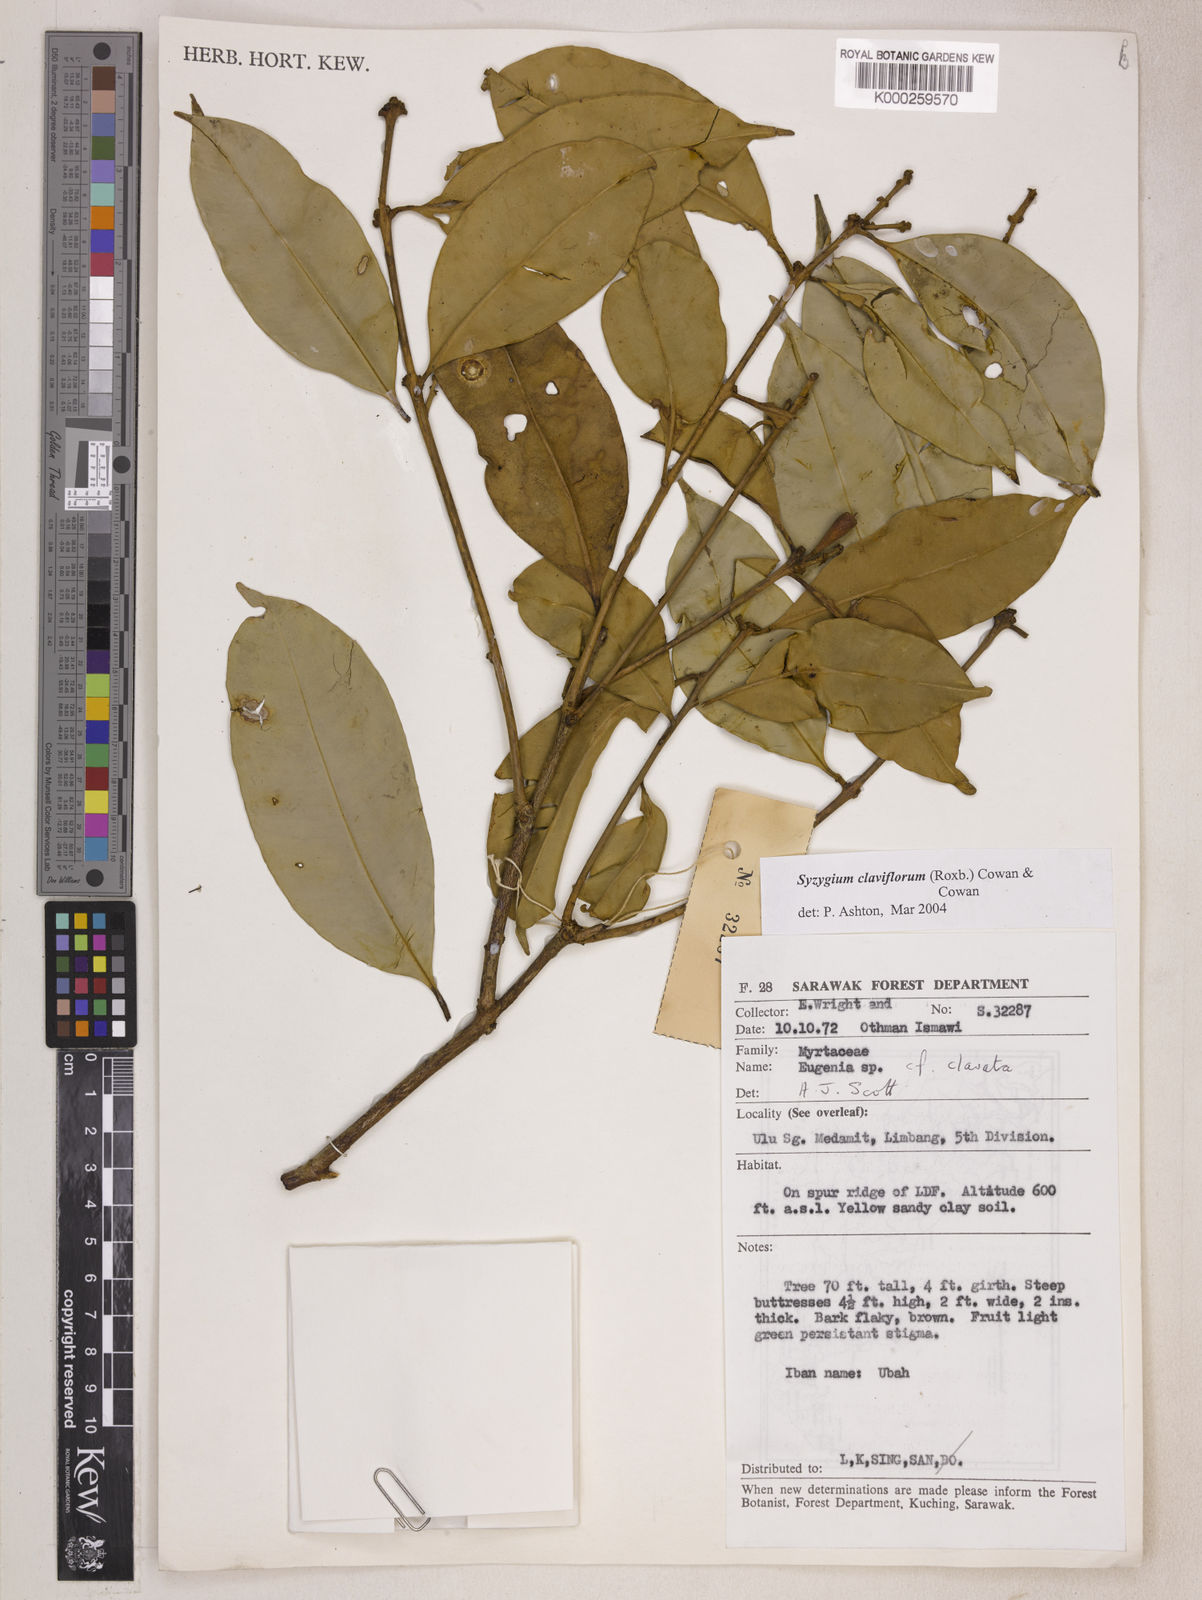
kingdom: Plantae
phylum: Tracheophyta
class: Magnoliopsida
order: Myrtales
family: Myrtaceae
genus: Syzygium
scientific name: Syzygium claviflorum
